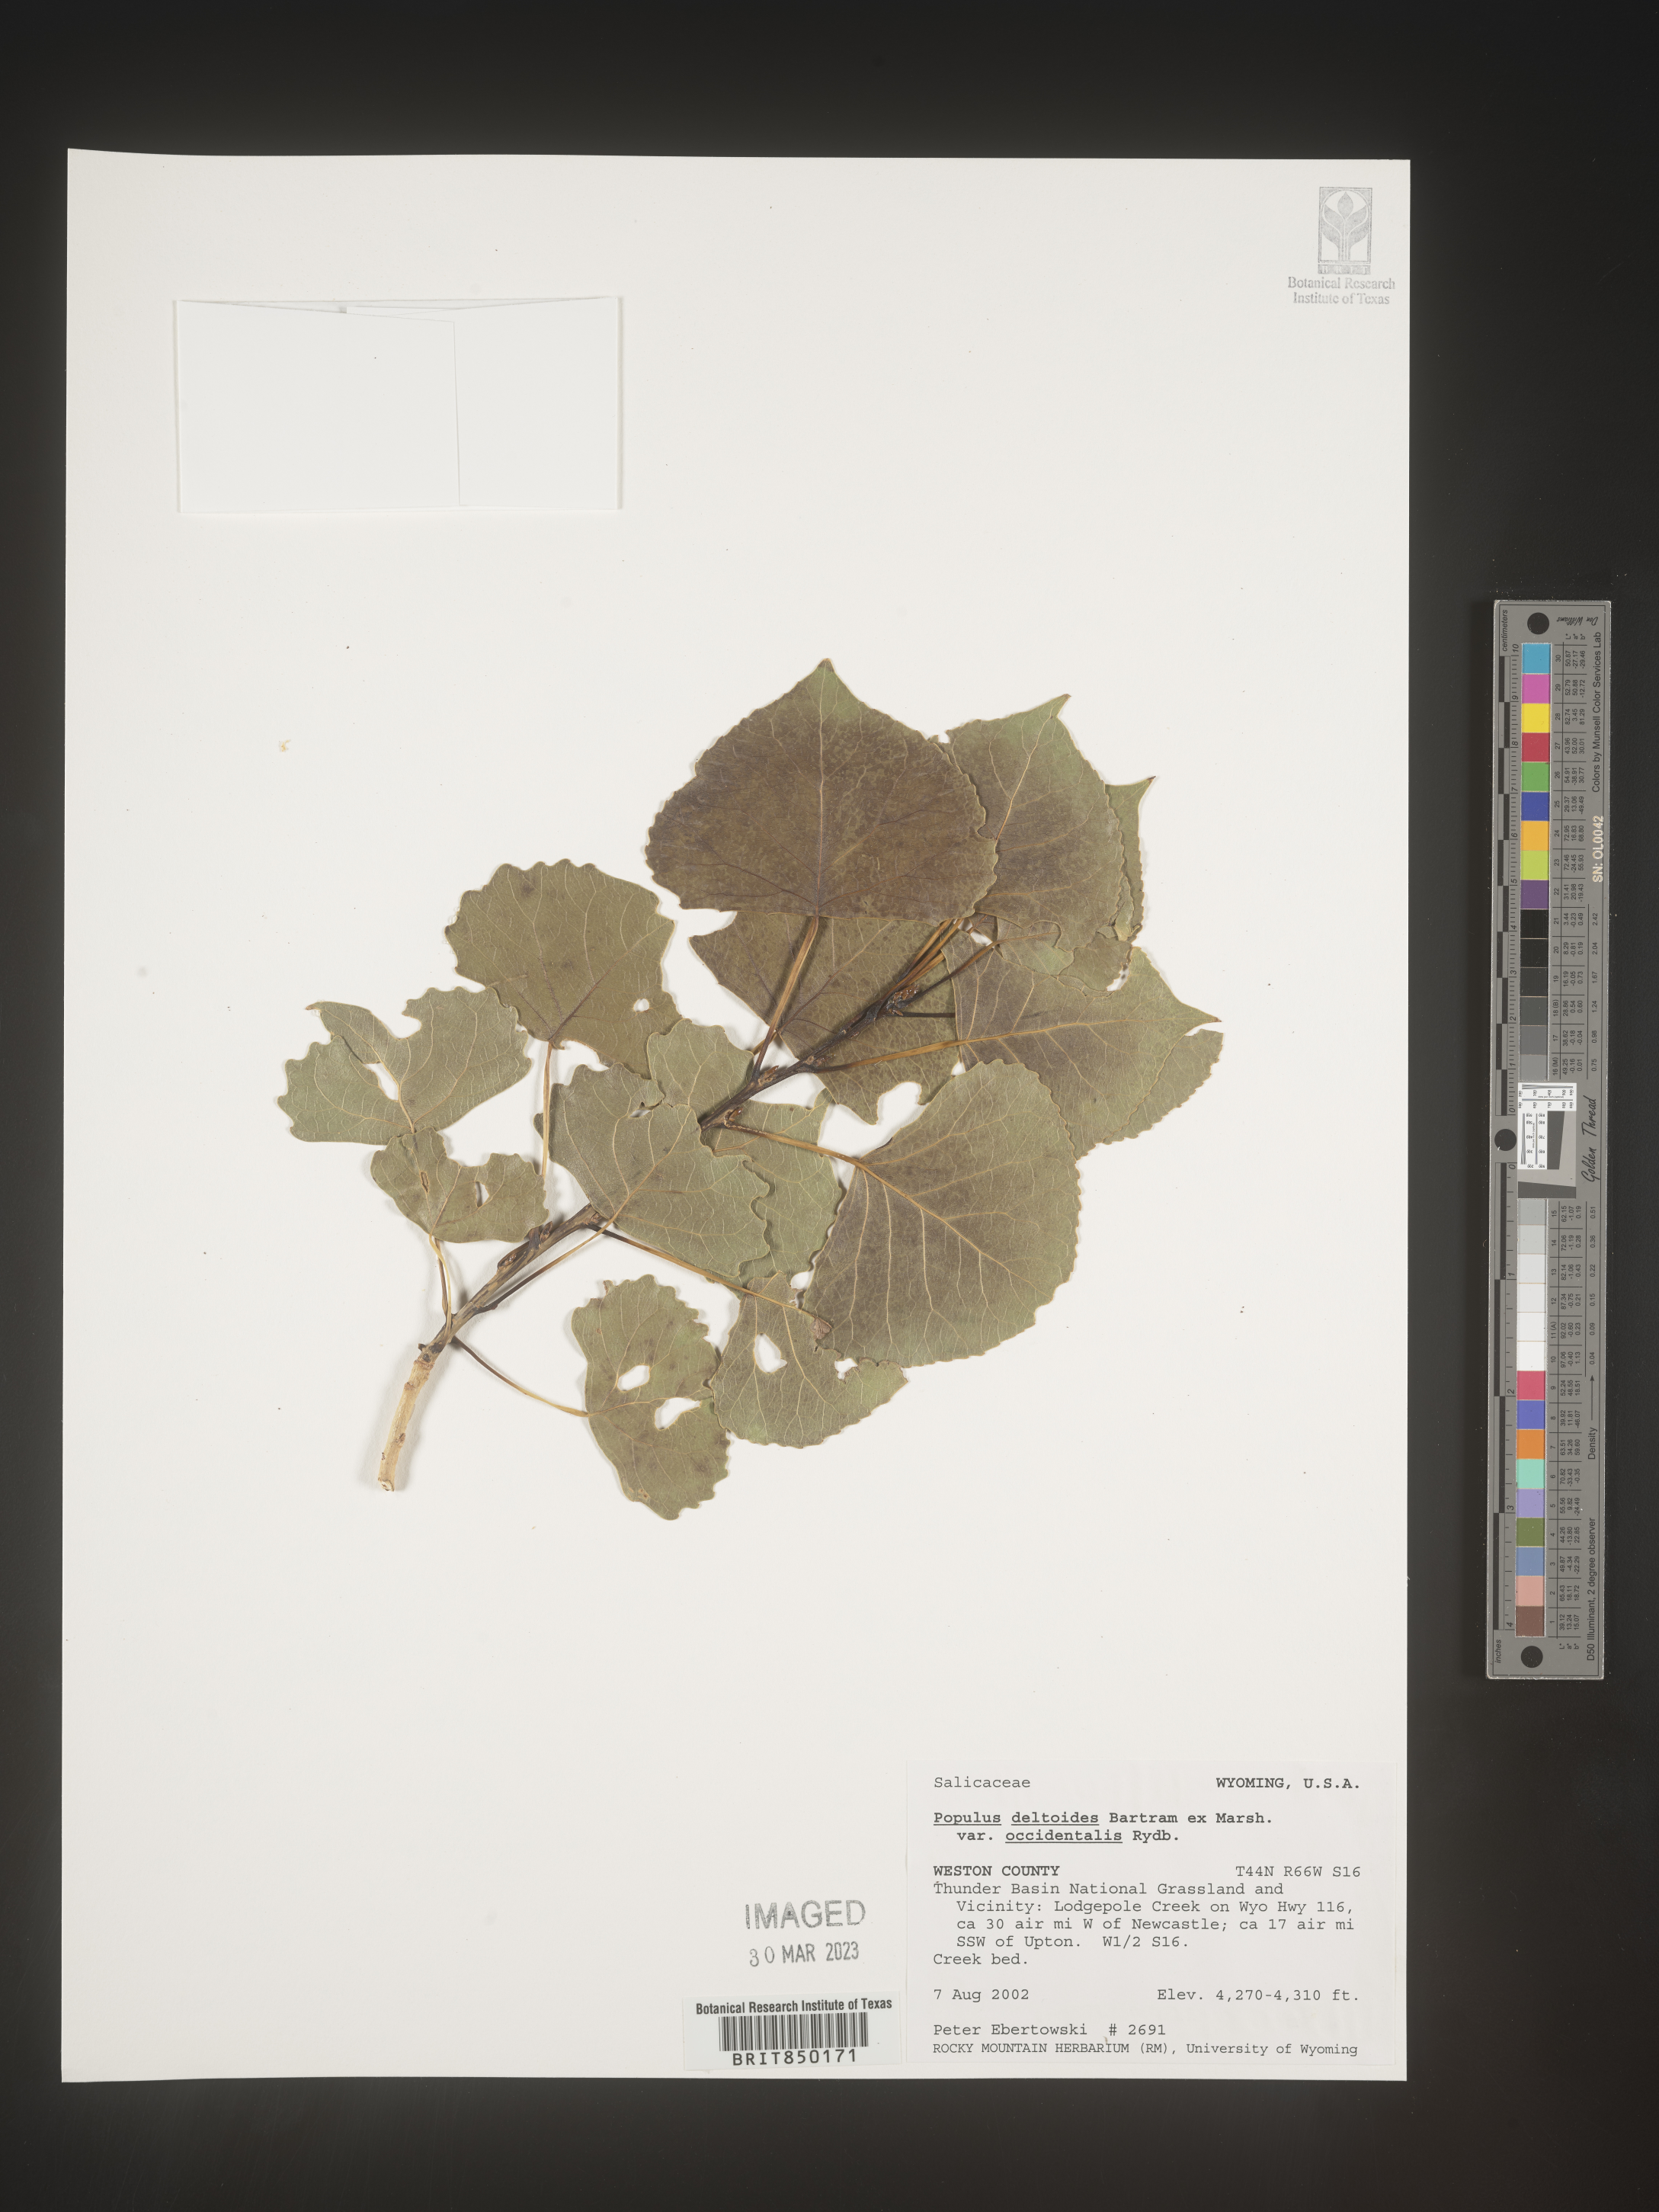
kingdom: Plantae
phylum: Tracheophyta
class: Magnoliopsida
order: Malpighiales
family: Salicaceae
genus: Populus
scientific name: Populus deltoides
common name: Eastern cottonwood
